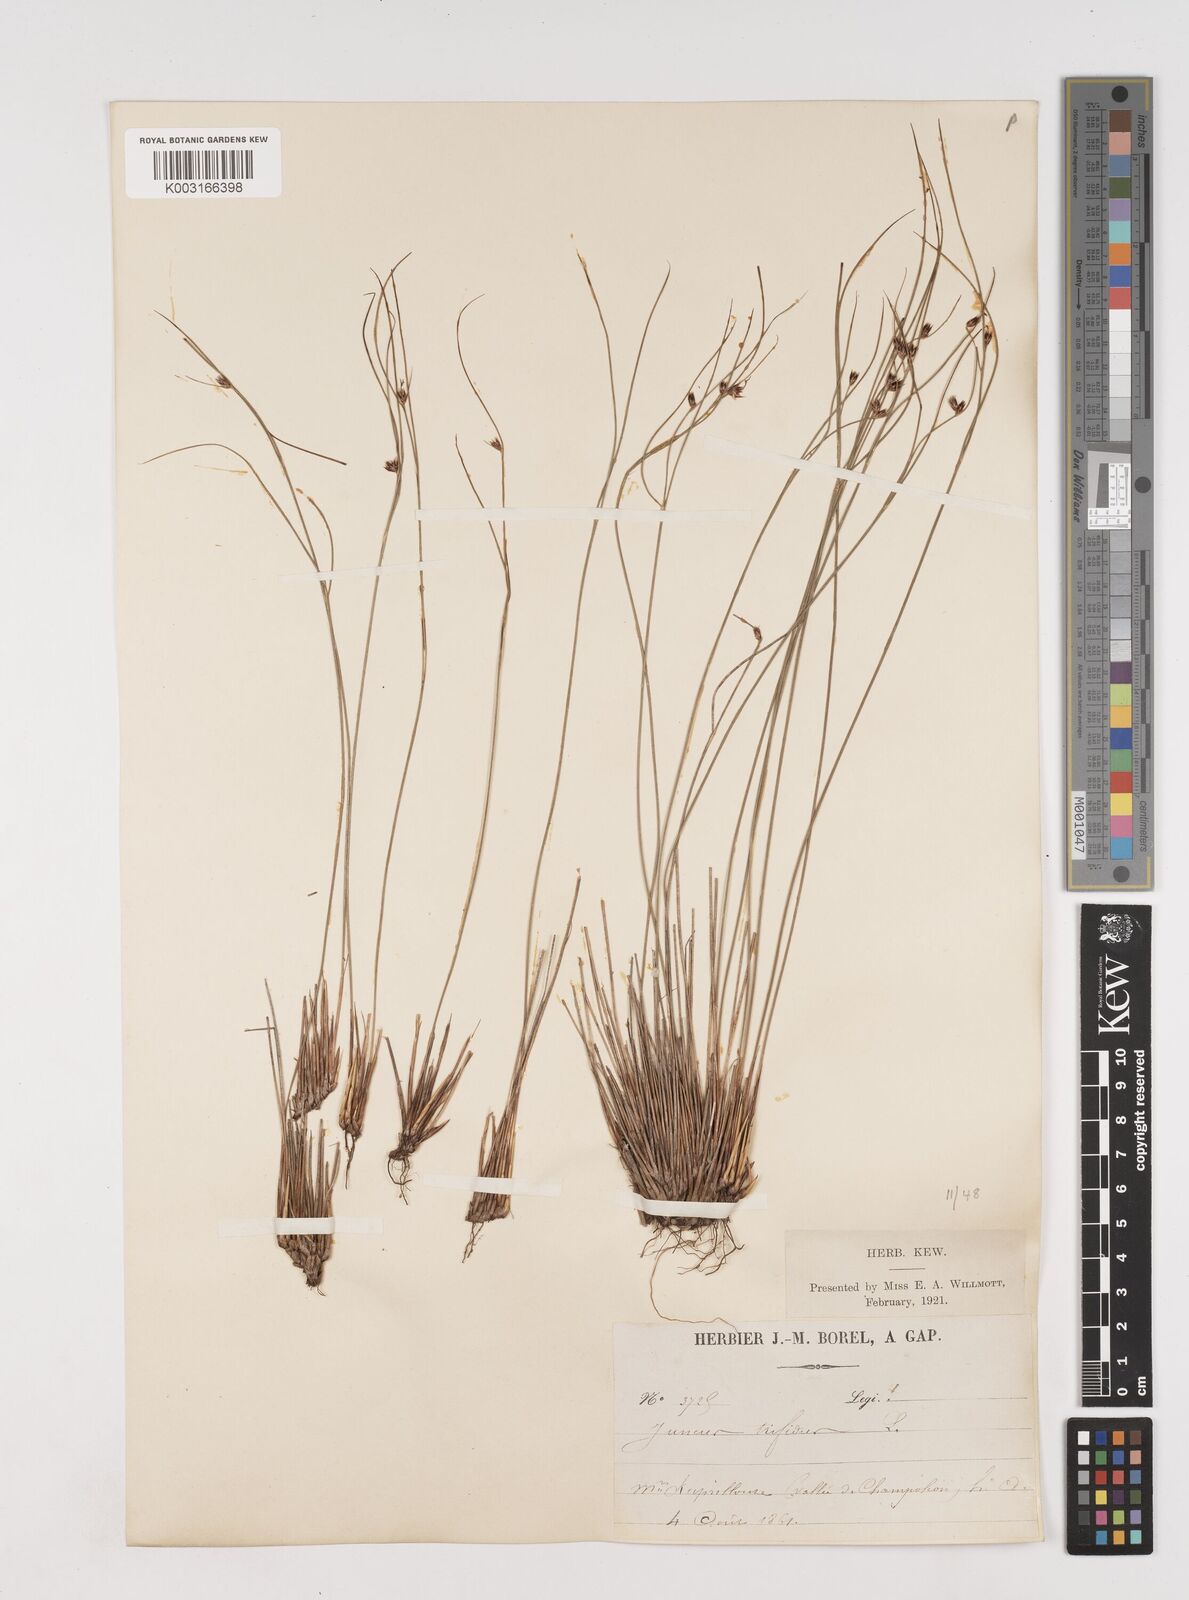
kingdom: Plantae
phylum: Tracheophyta
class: Liliopsida
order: Poales
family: Juncaceae
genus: Oreojuncus
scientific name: Oreojuncus trifidus
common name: Highland rush
